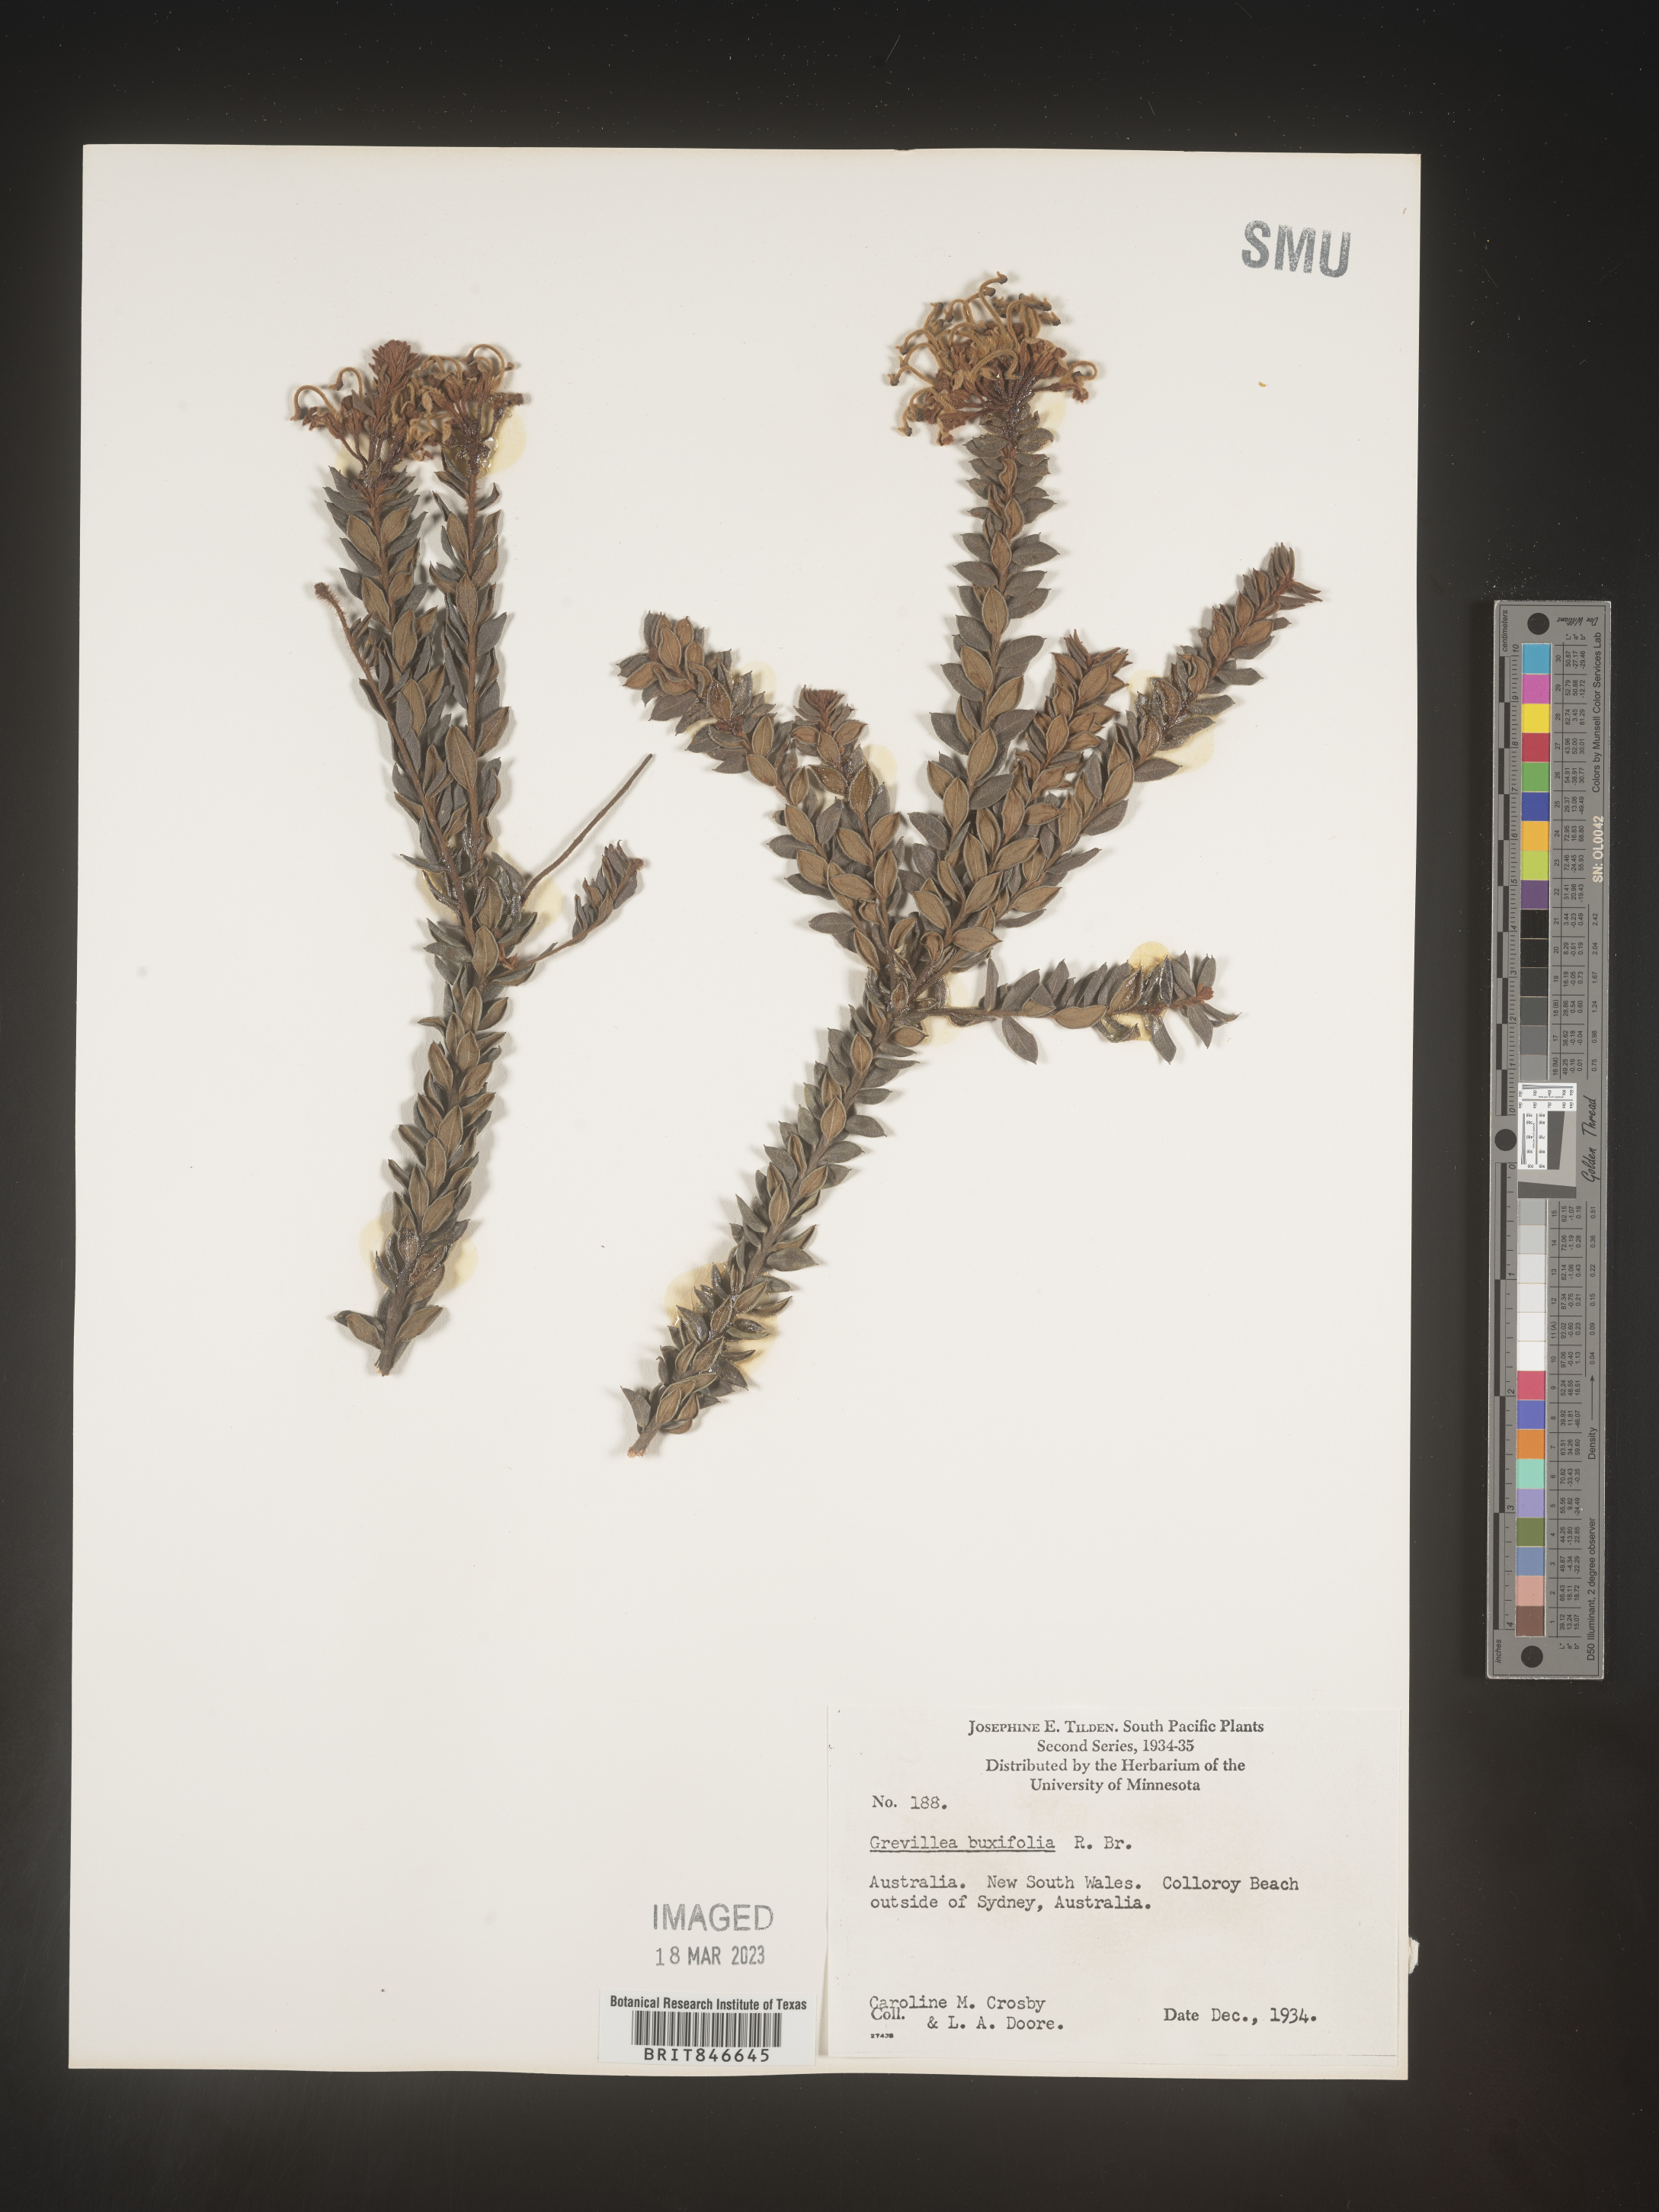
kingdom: Plantae
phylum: Tracheophyta
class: Magnoliopsida
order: Proteales
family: Proteaceae
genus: Grevillea
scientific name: Grevillea
